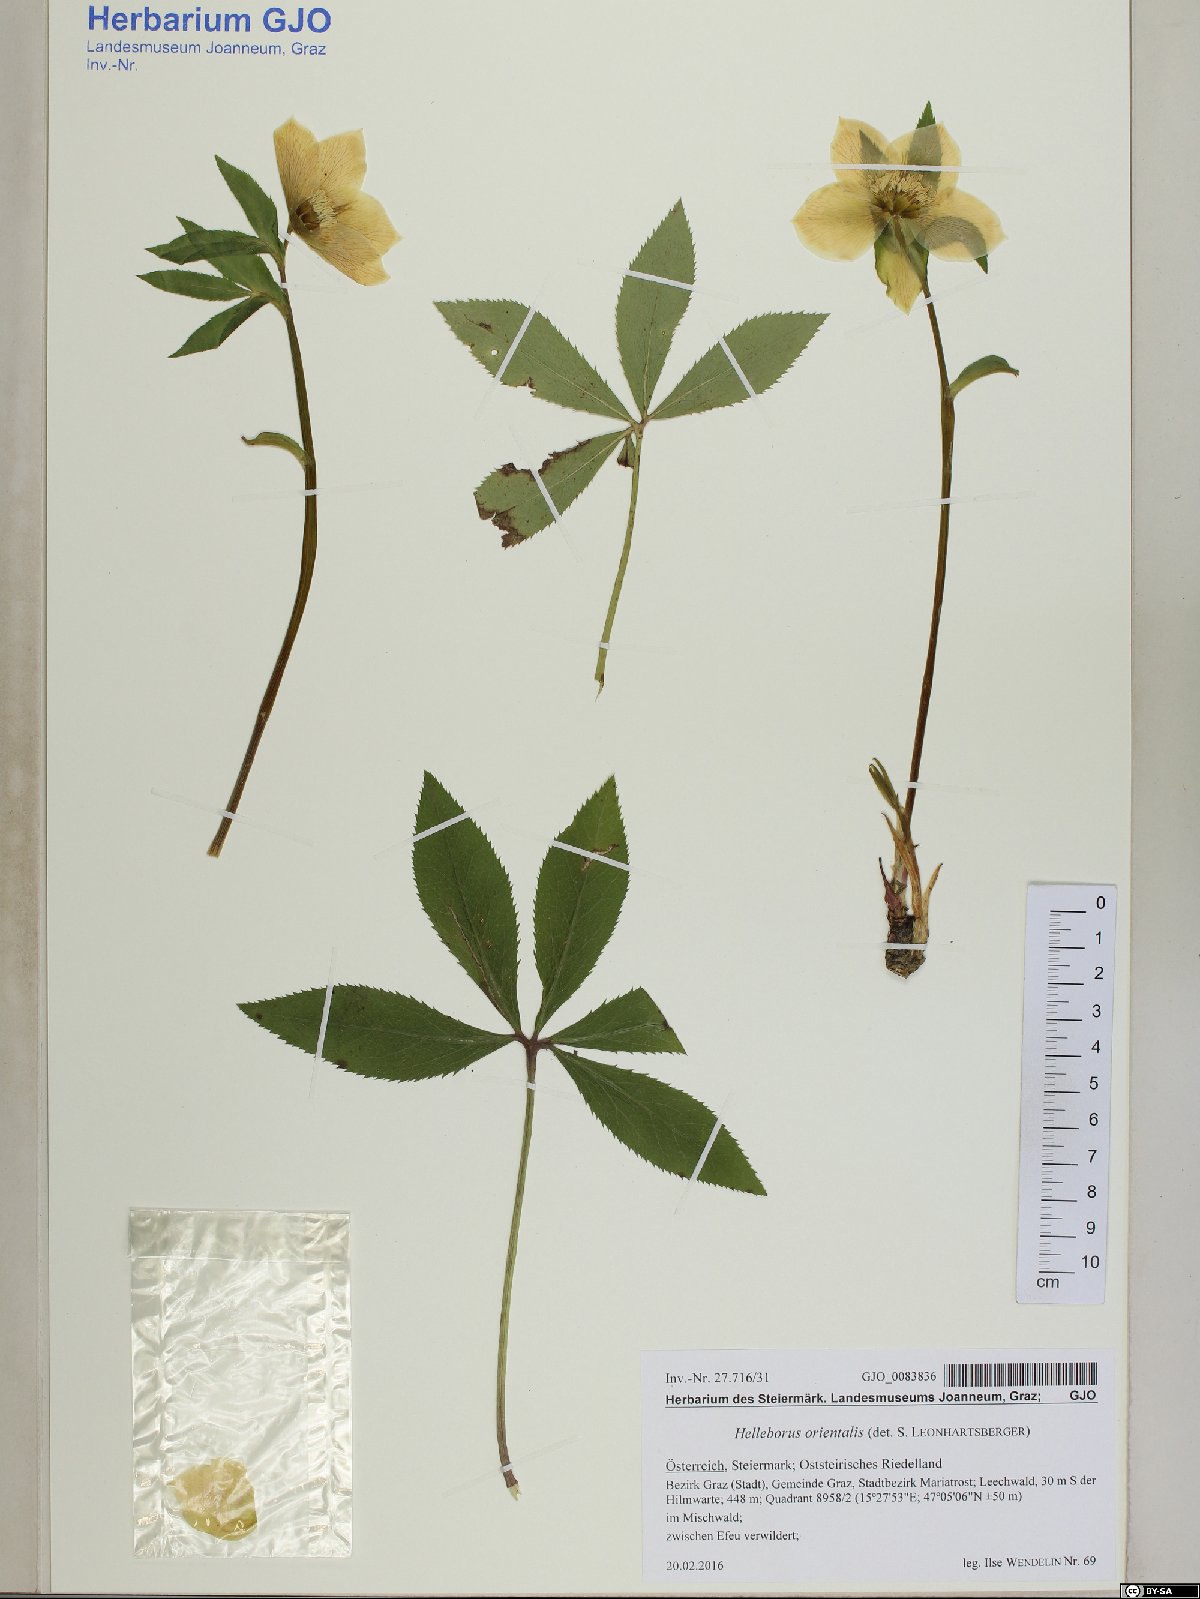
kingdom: Plantae
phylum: Tracheophyta
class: Magnoliopsida
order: Ranunculales
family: Ranunculaceae
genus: Helleborus
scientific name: Helleborus orientalis
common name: Lenten-rose
